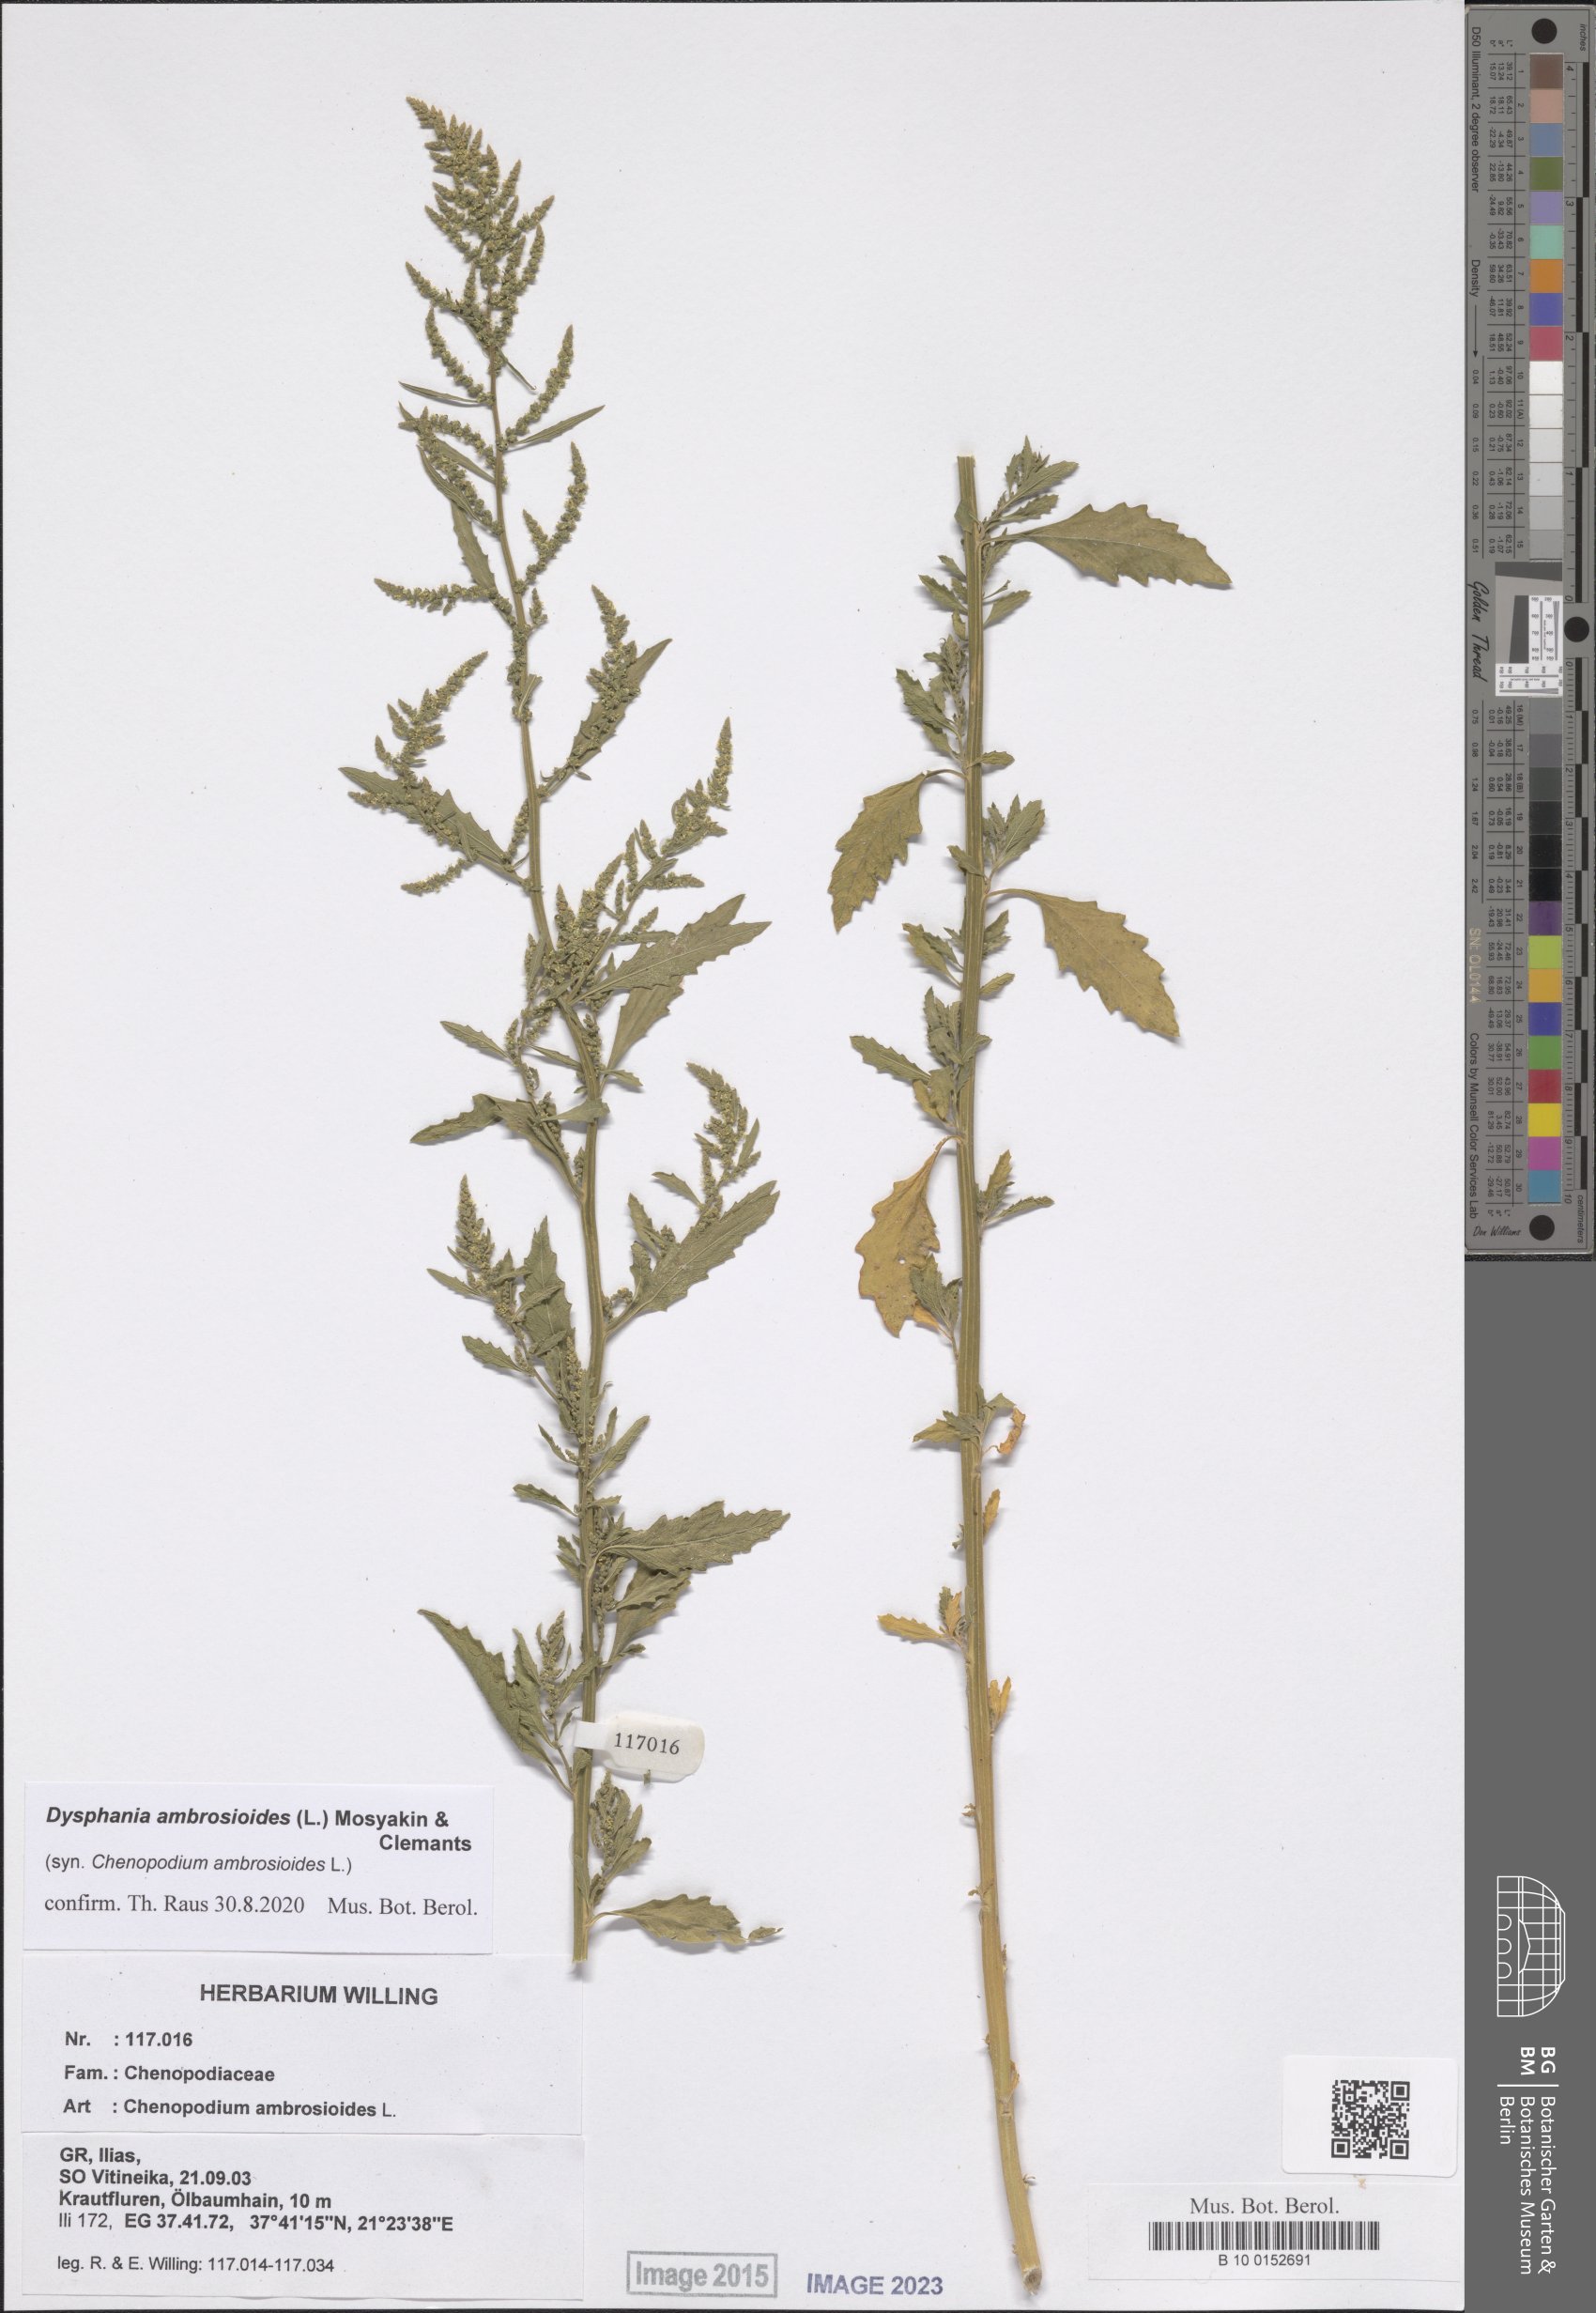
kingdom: Plantae
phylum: Tracheophyta
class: Magnoliopsida
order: Caryophyllales
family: Amaranthaceae
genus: Dysphania
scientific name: Dysphania ambrosioides
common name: Wormseed
